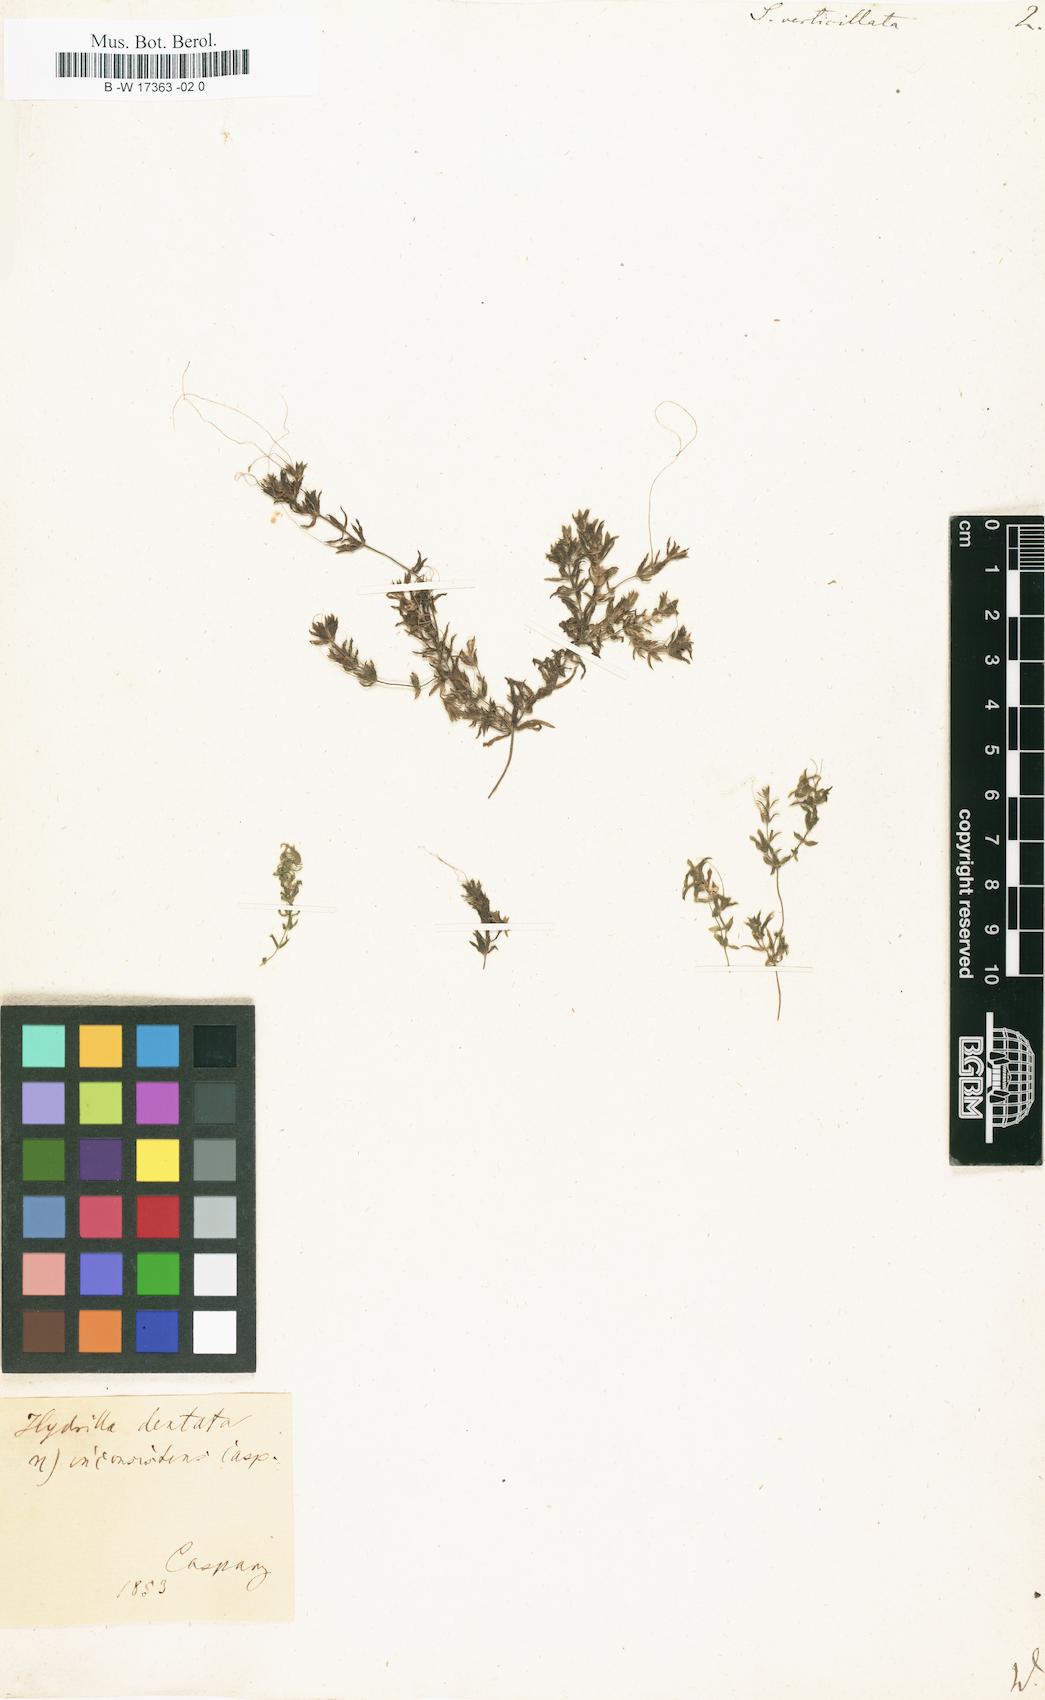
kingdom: Plantae
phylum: Tracheophyta
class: Liliopsida
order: Alismatales
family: Hydrocharitaceae
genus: Hydrilla
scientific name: Hydrilla verticillata
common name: Florida-elodea
